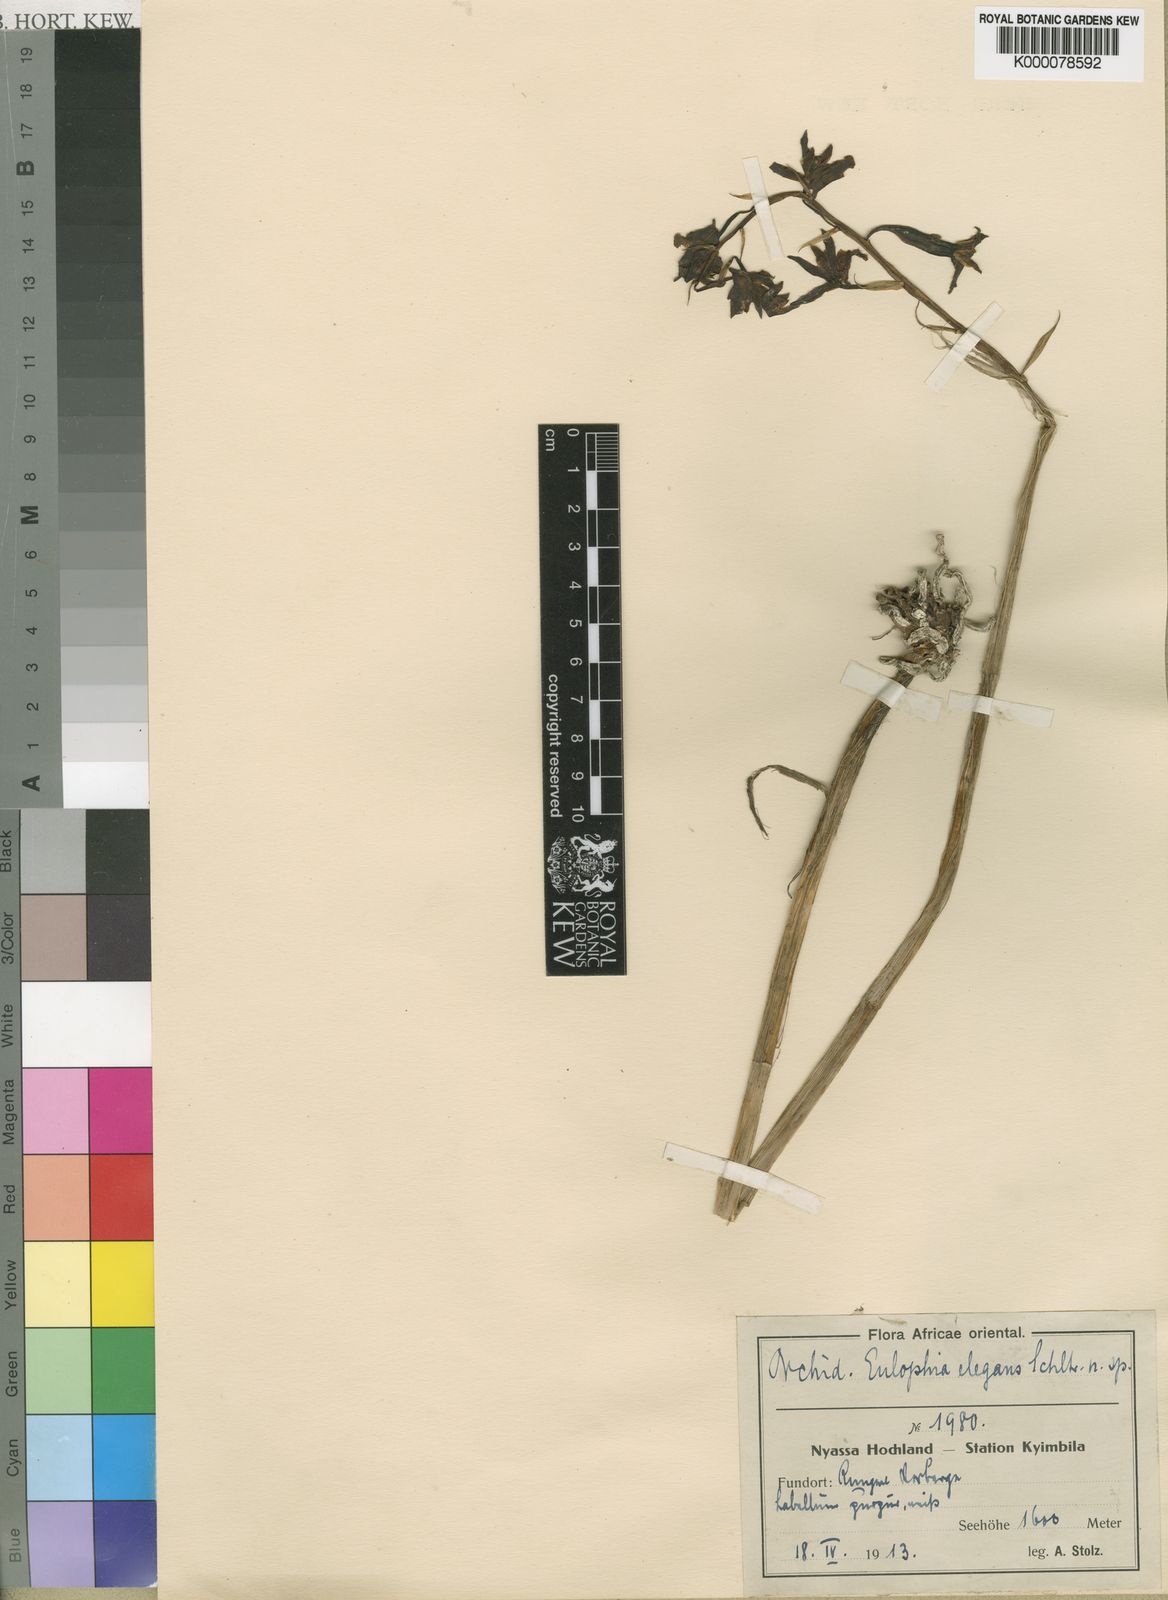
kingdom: Plantae
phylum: Tracheophyta
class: Liliopsida
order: Asparagales
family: Orchidaceae
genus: Eulophia
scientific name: Eulophia elegans
